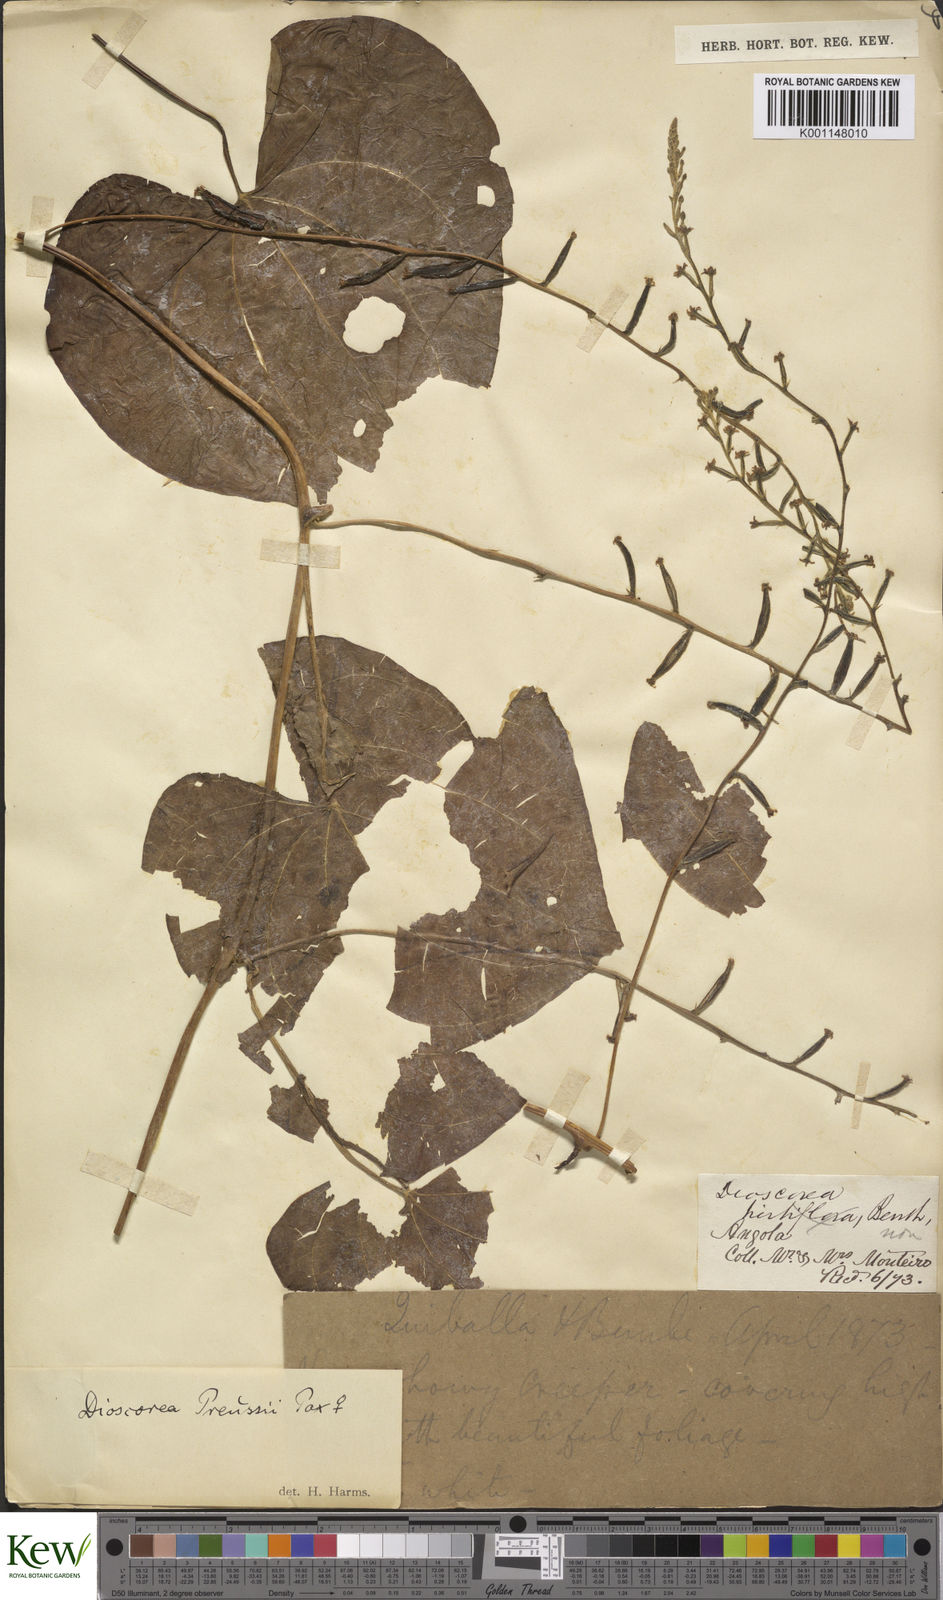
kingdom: Plantae
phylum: Tracheophyta
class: Liliopsida
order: Dioscoreales
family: Dioscoreaceae
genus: Dioscorea
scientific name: Dioscorea preussii
